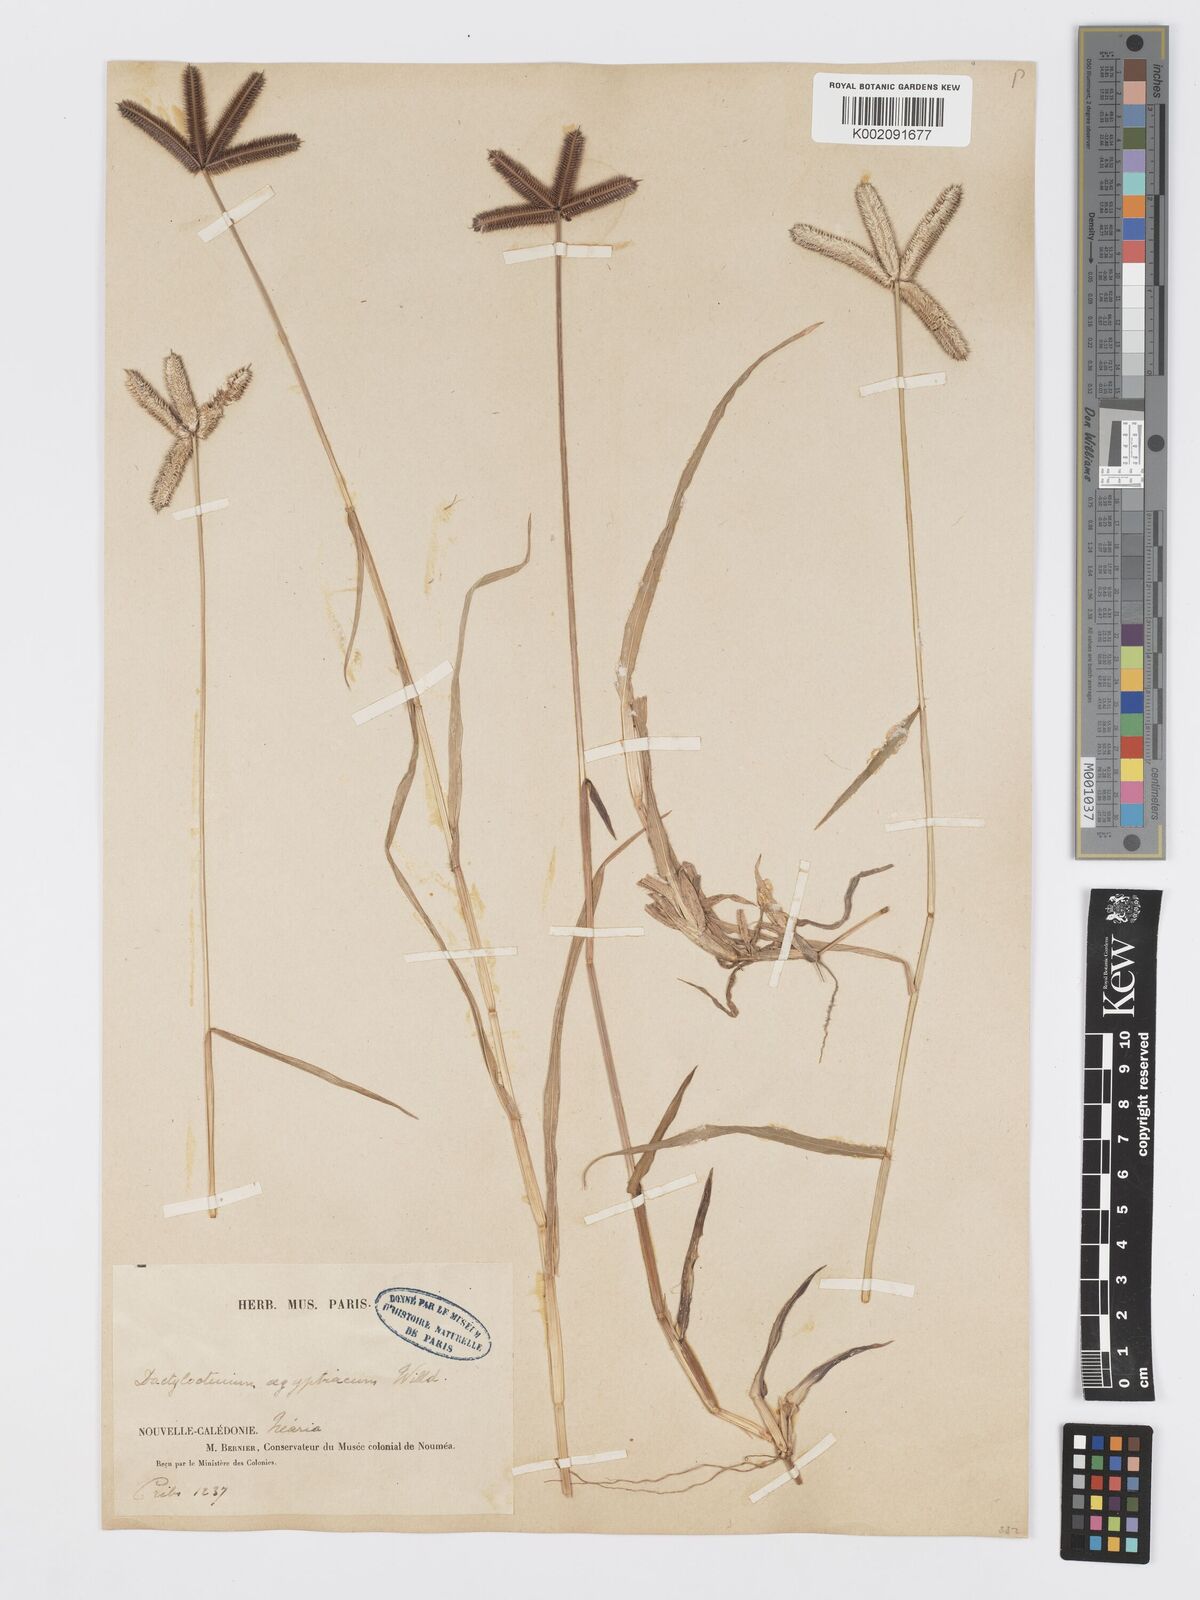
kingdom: Plantae
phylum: Tracheophyta
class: Liliopsida
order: Poales
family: Poaceae
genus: Dactyloctenium
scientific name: Dactyloctenium aegyptium
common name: Egyptian grass
